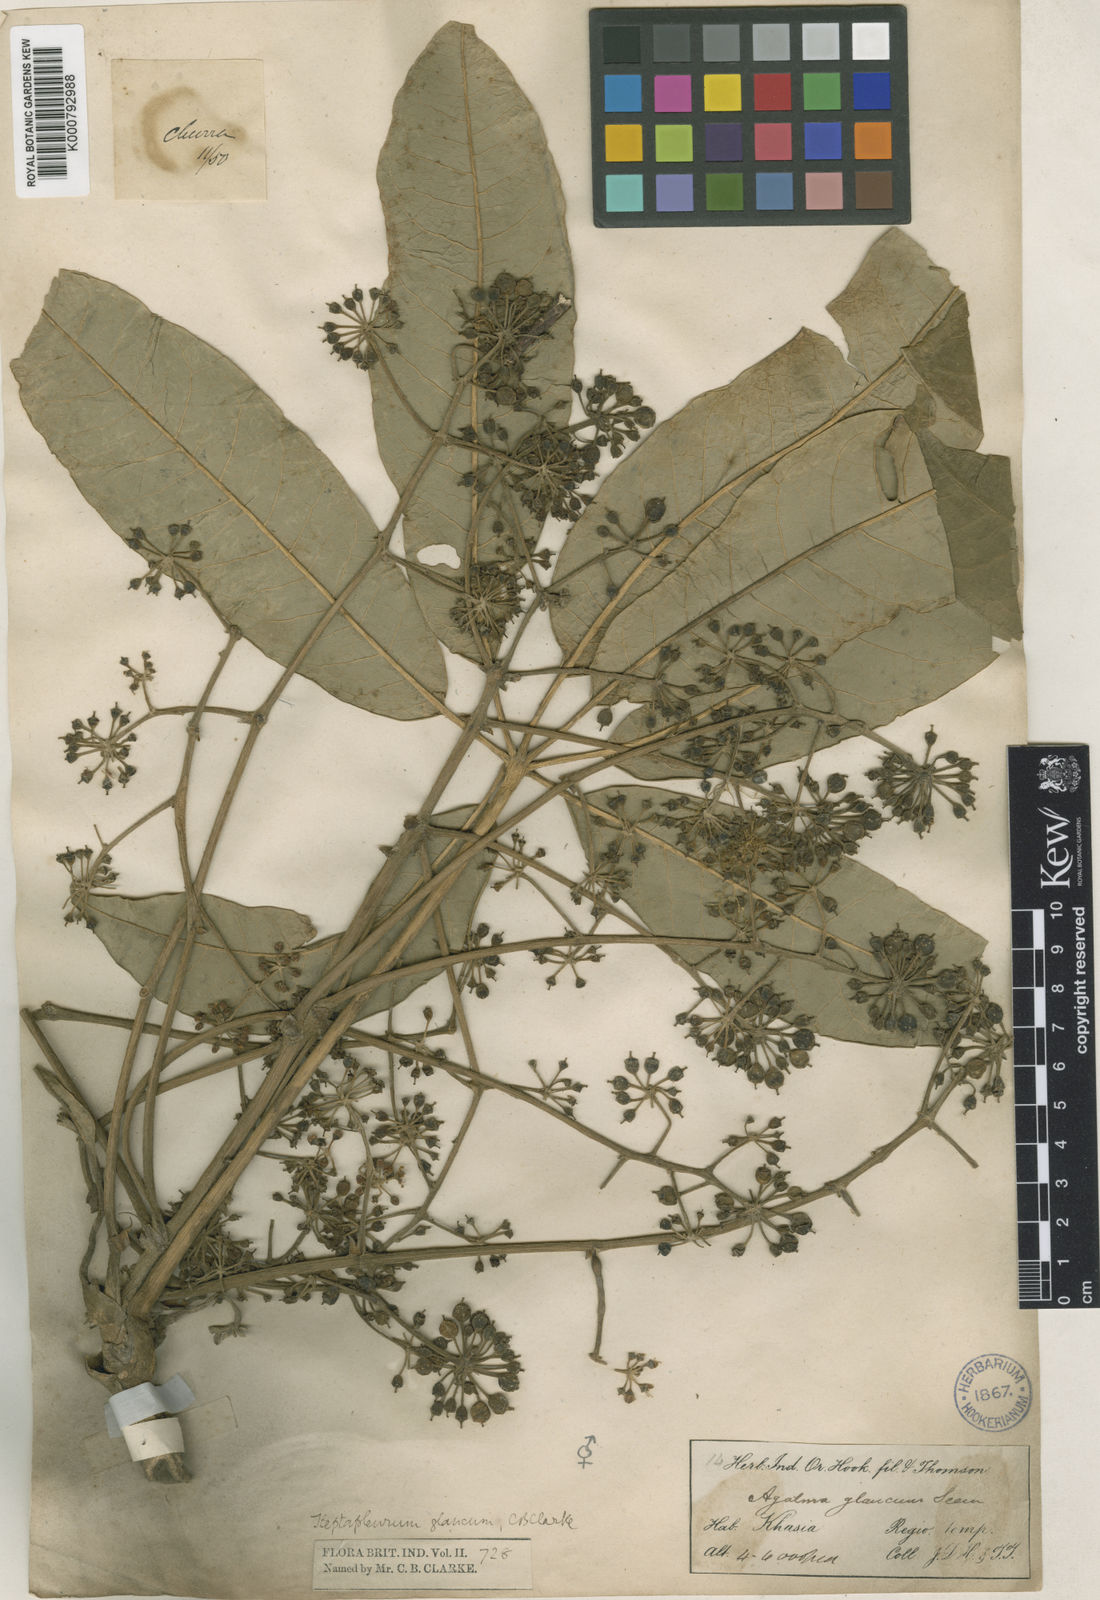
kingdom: Plantae
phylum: Tracheophyta
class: Magnoliopsida
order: Apiales
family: Araliaceae
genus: Heptapleurum
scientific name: Heptapleurum rhododendrifolium
